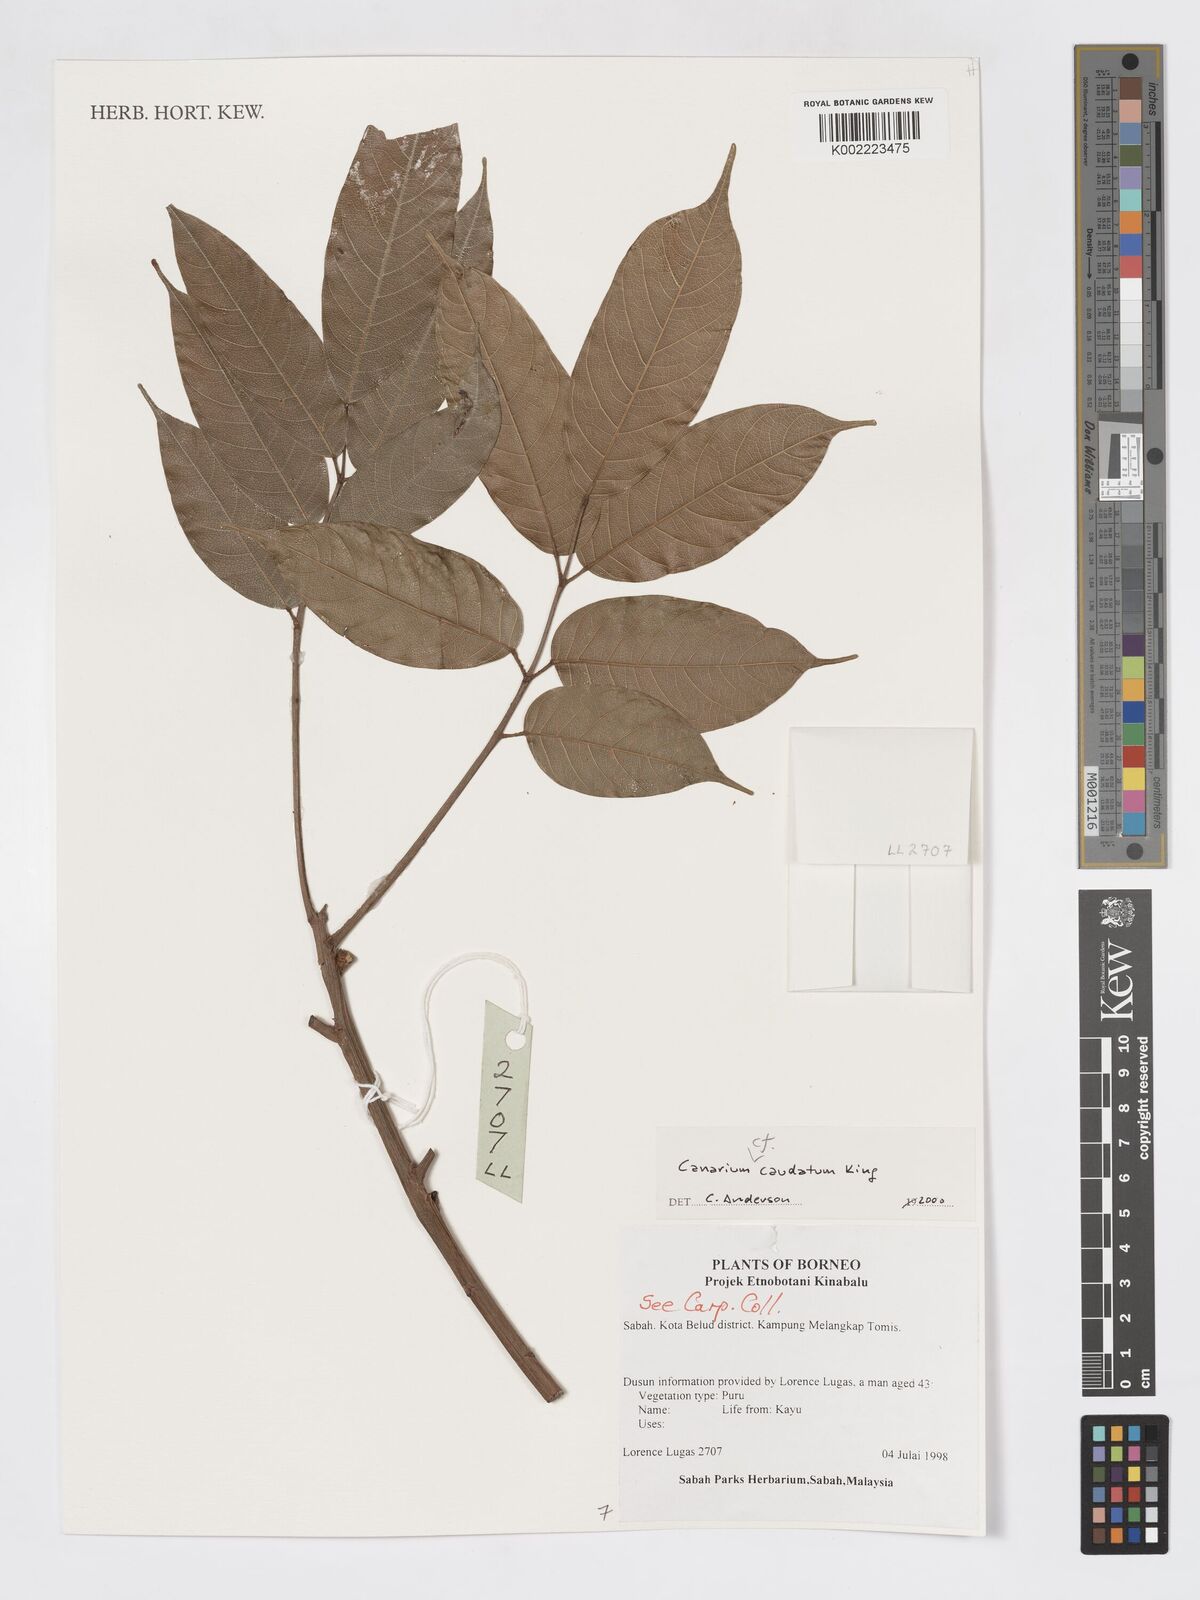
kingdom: Plantae
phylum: Tracheophyta
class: Magnoliopsida
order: Sapindales
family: Burseraceae
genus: Canarium
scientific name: Canarium caudatum
